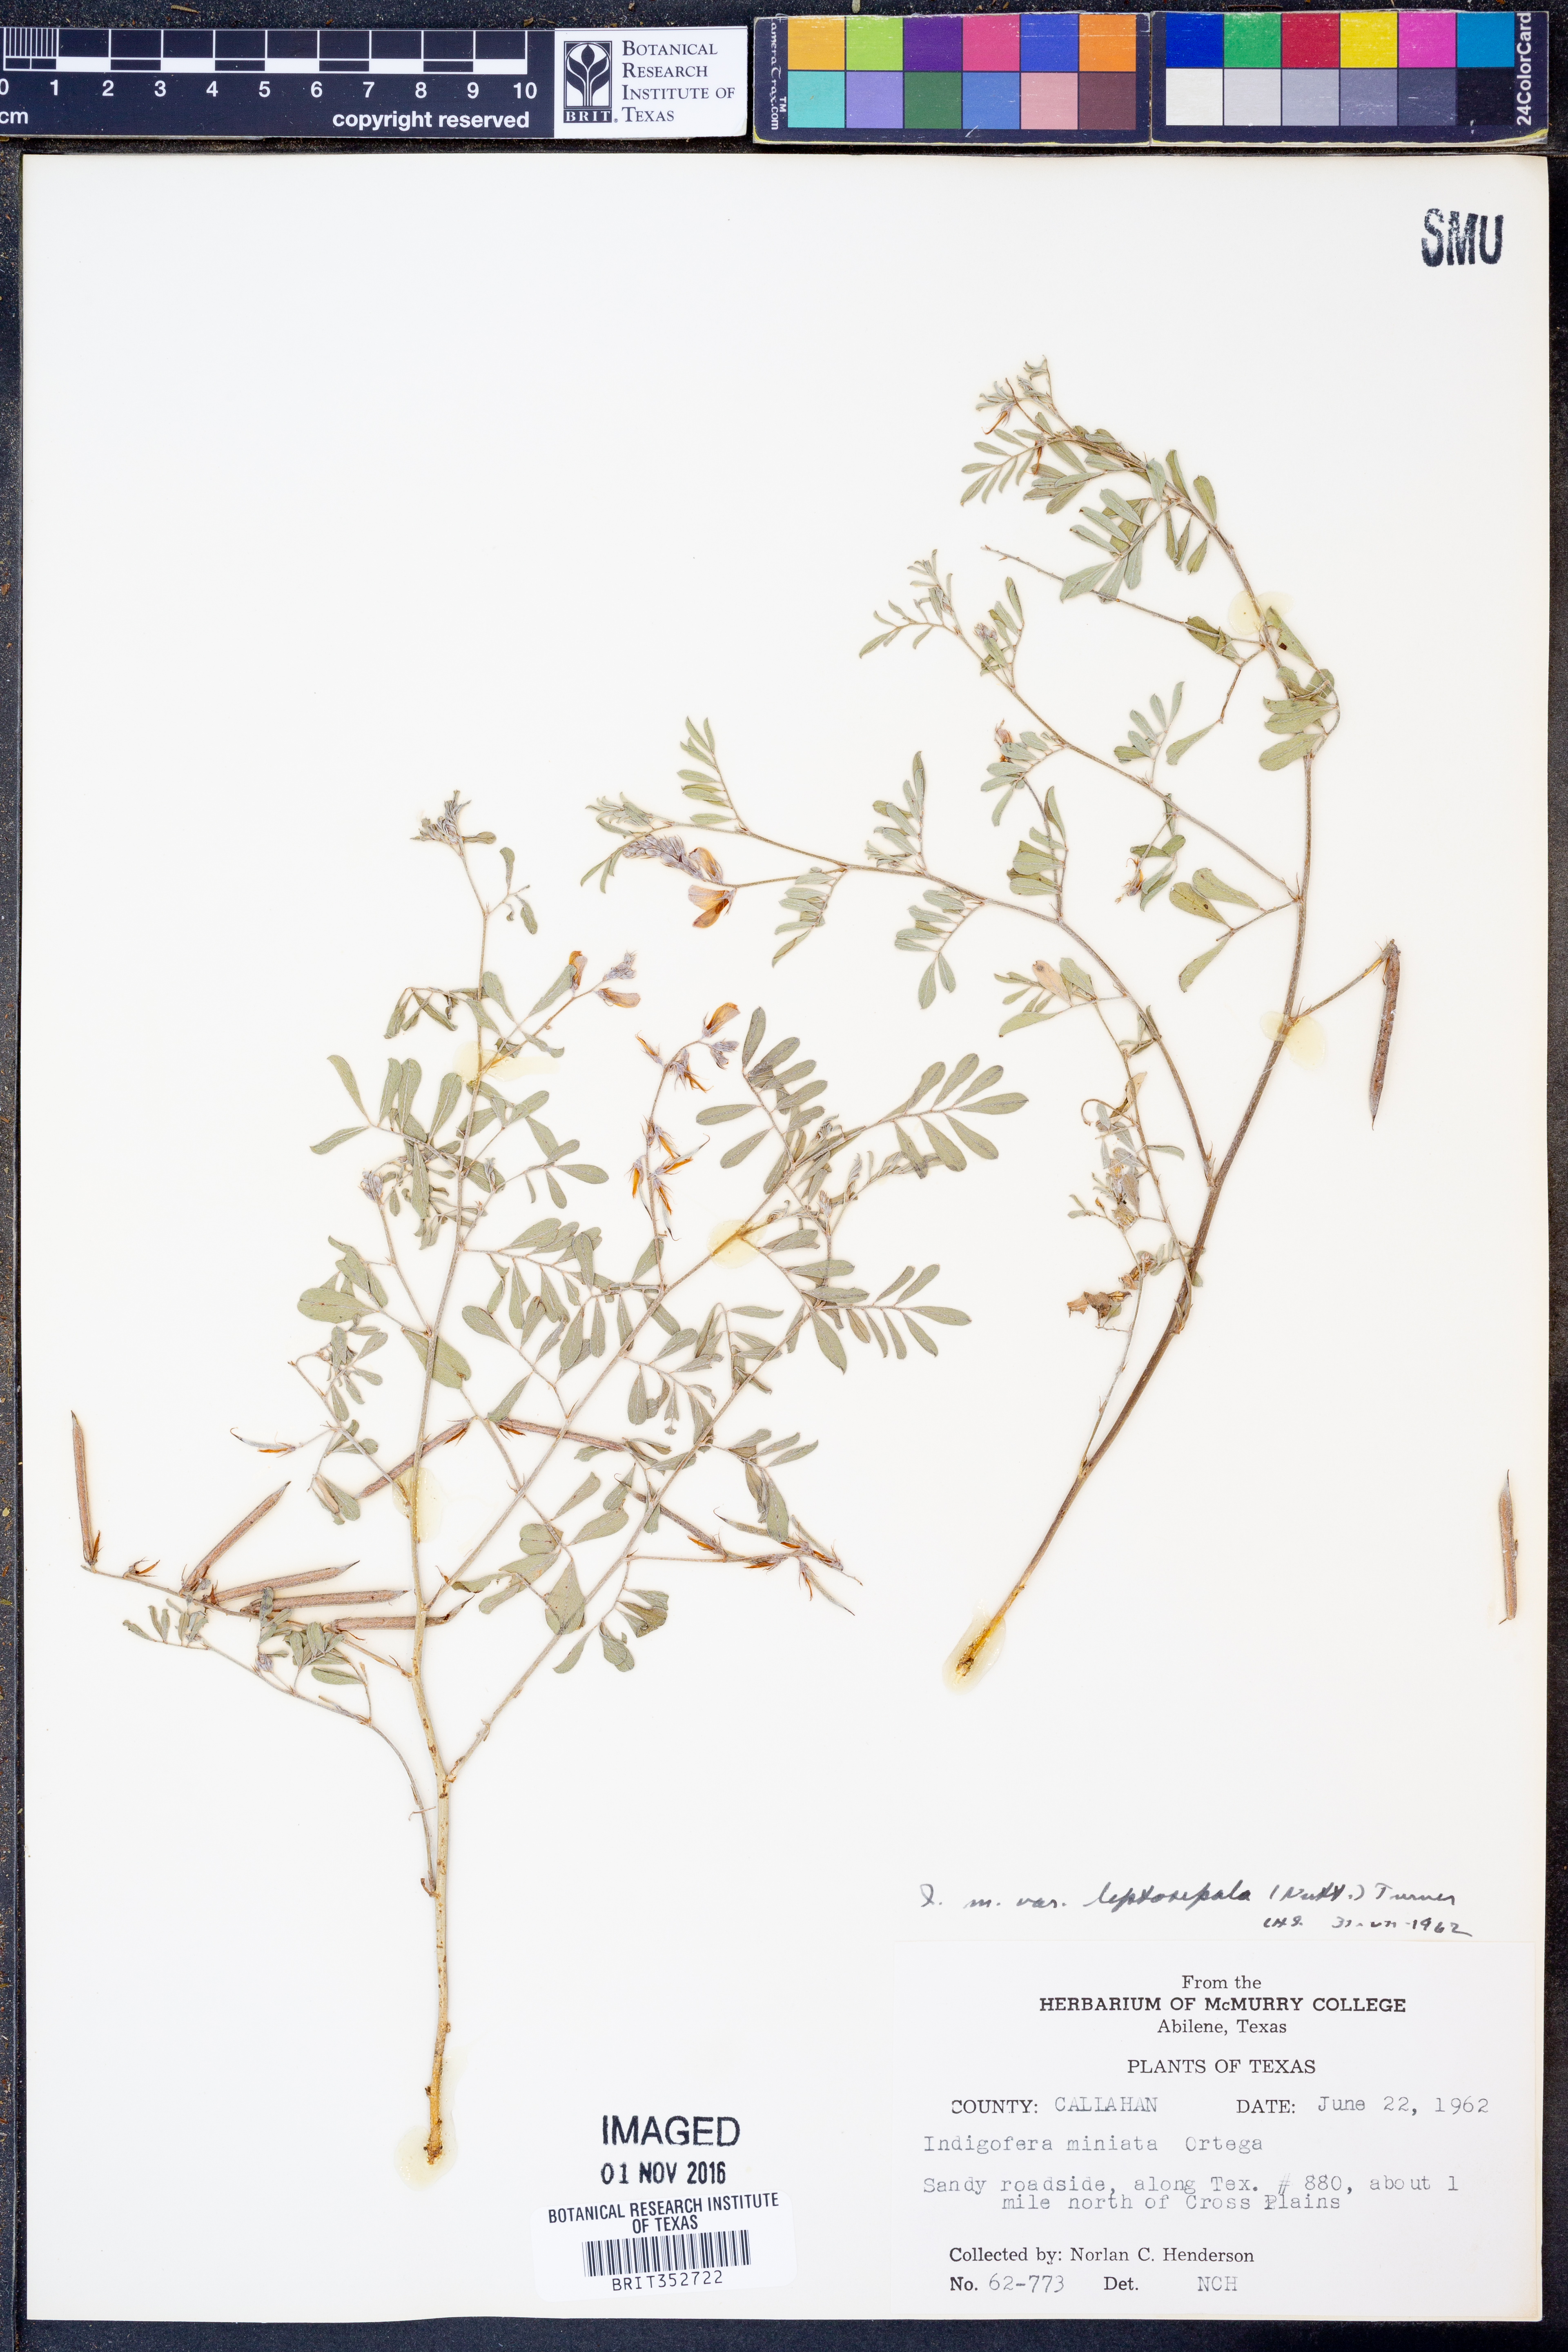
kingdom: Plantae
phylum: Tracheophyta
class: Magnoliopsida
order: Fabales
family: Fabaceae
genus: Indigofera
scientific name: Indigofera miniata
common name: Coast indigo
